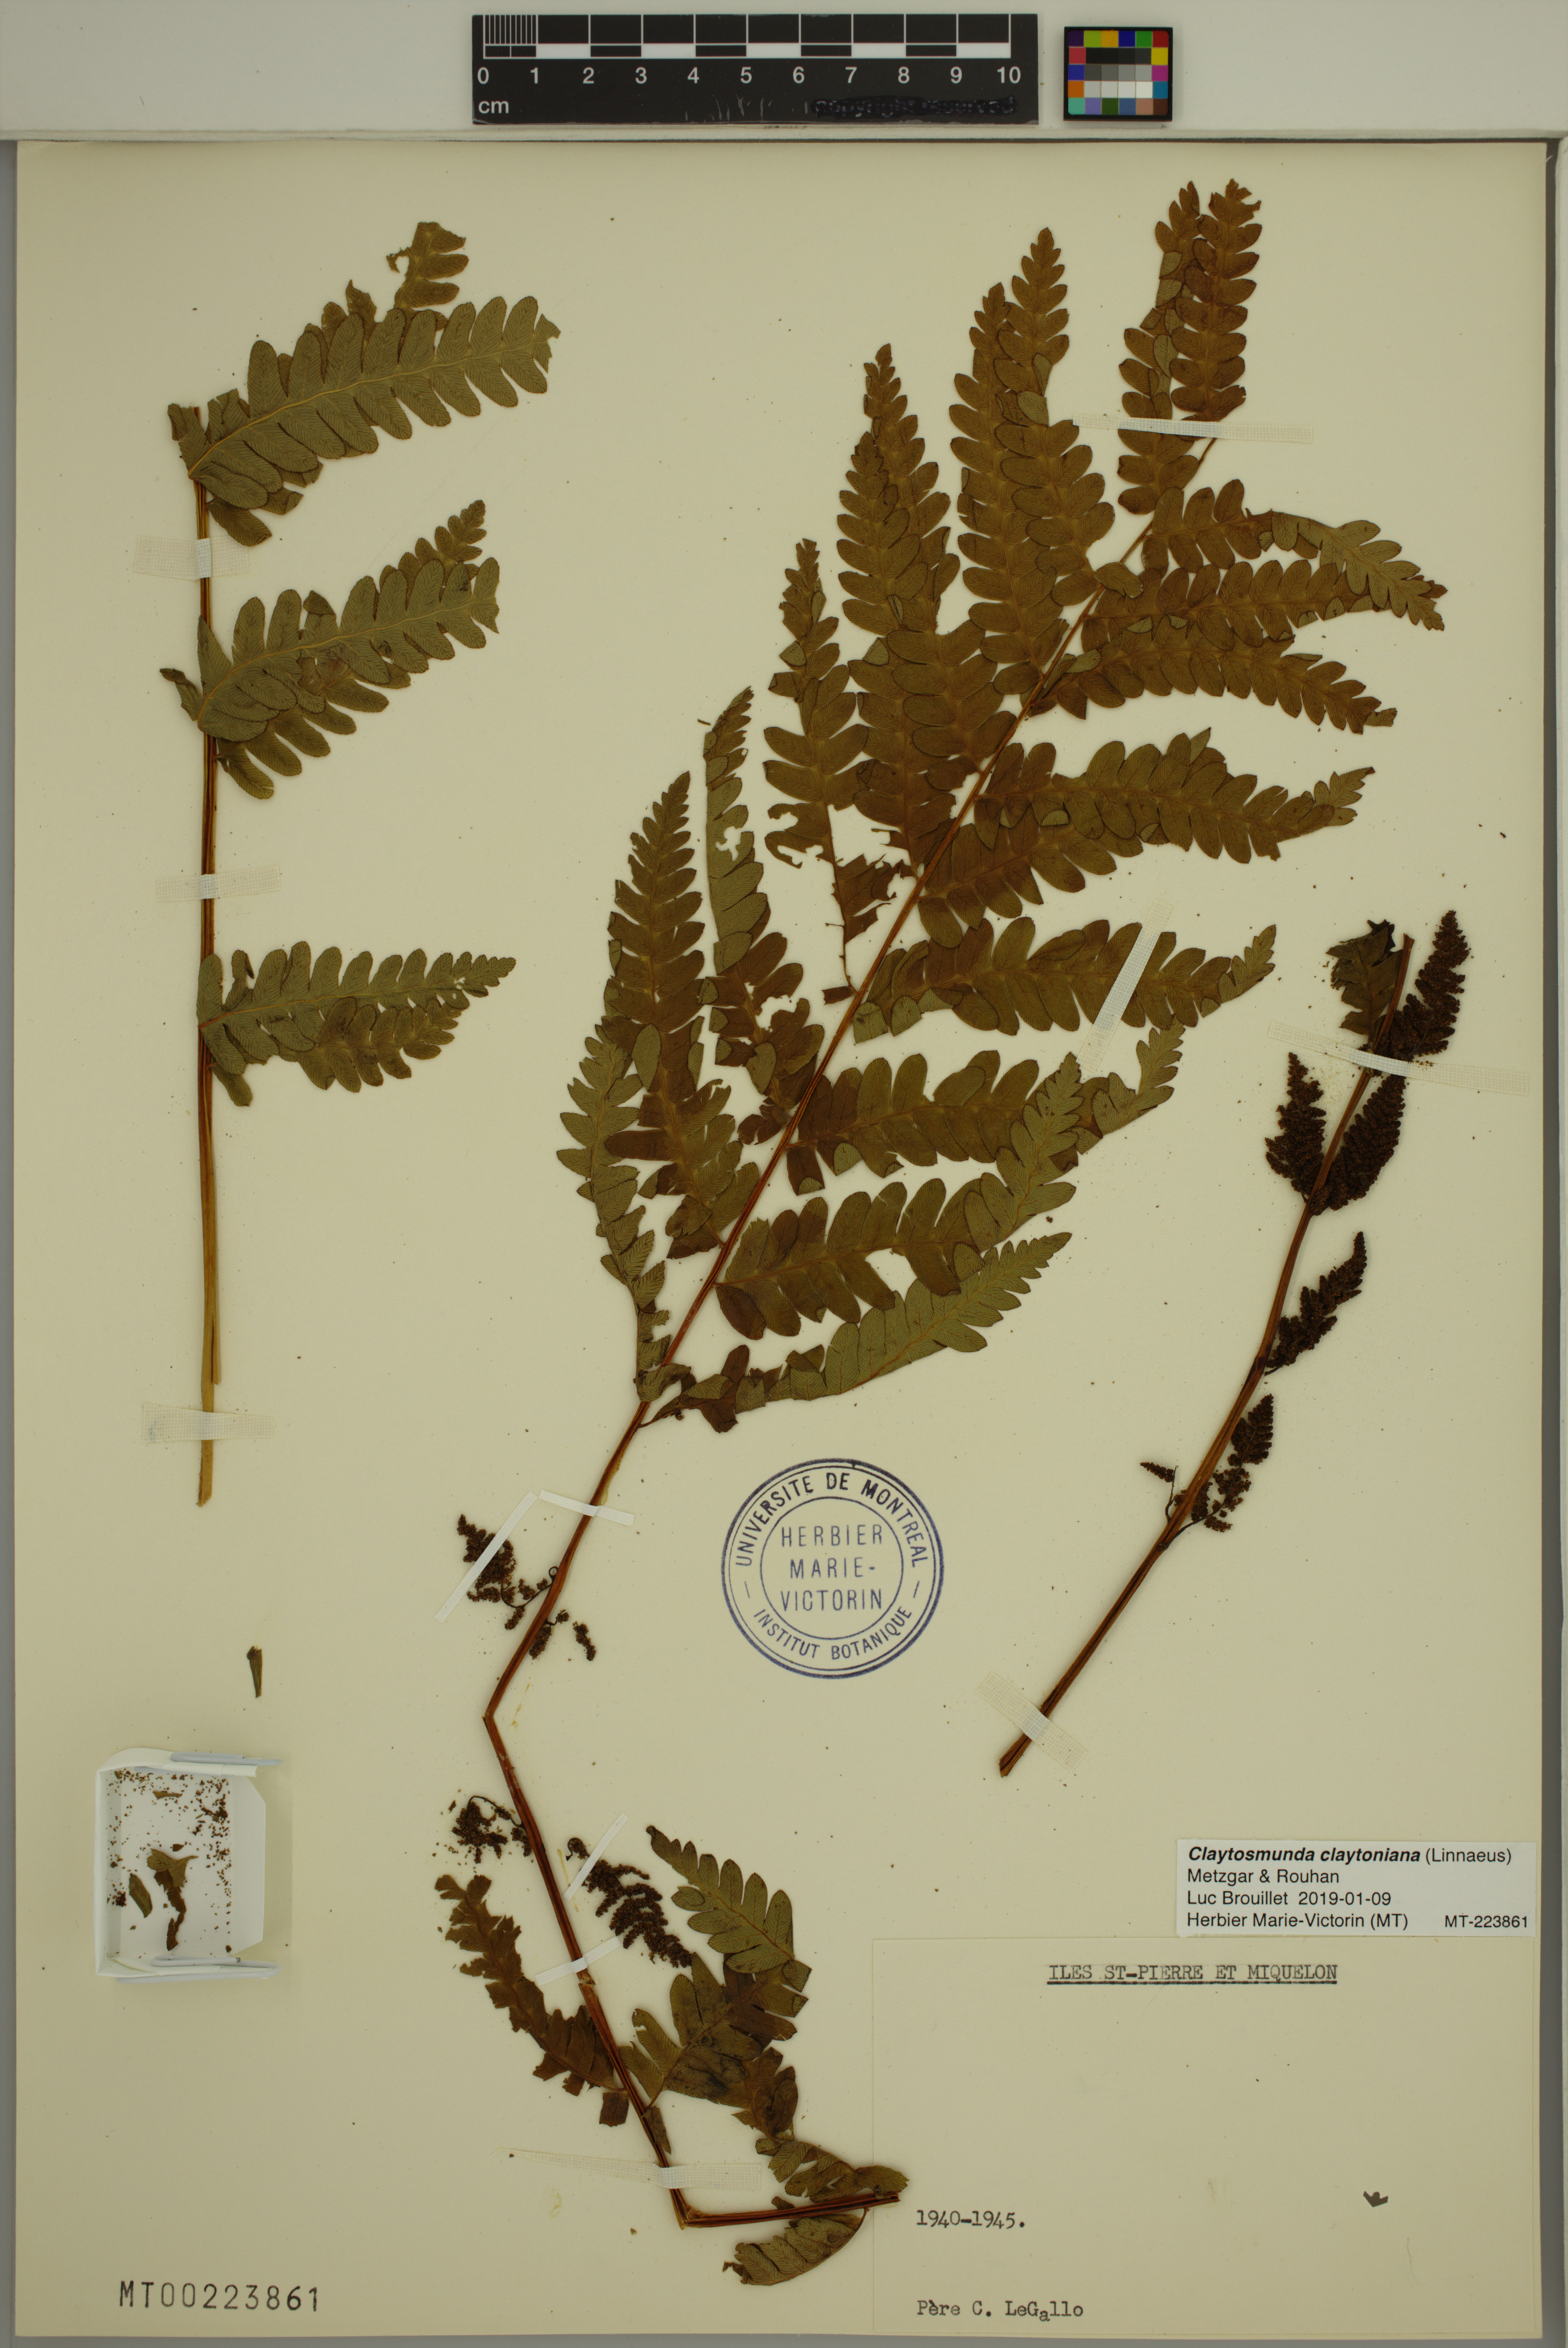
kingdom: Plantae
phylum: Tracheophyta
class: Polypodiopsida
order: Osmundales
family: Osmundaceae
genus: Claytosmunda
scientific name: Claytosmunda claytoniana
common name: Clayton's fern
